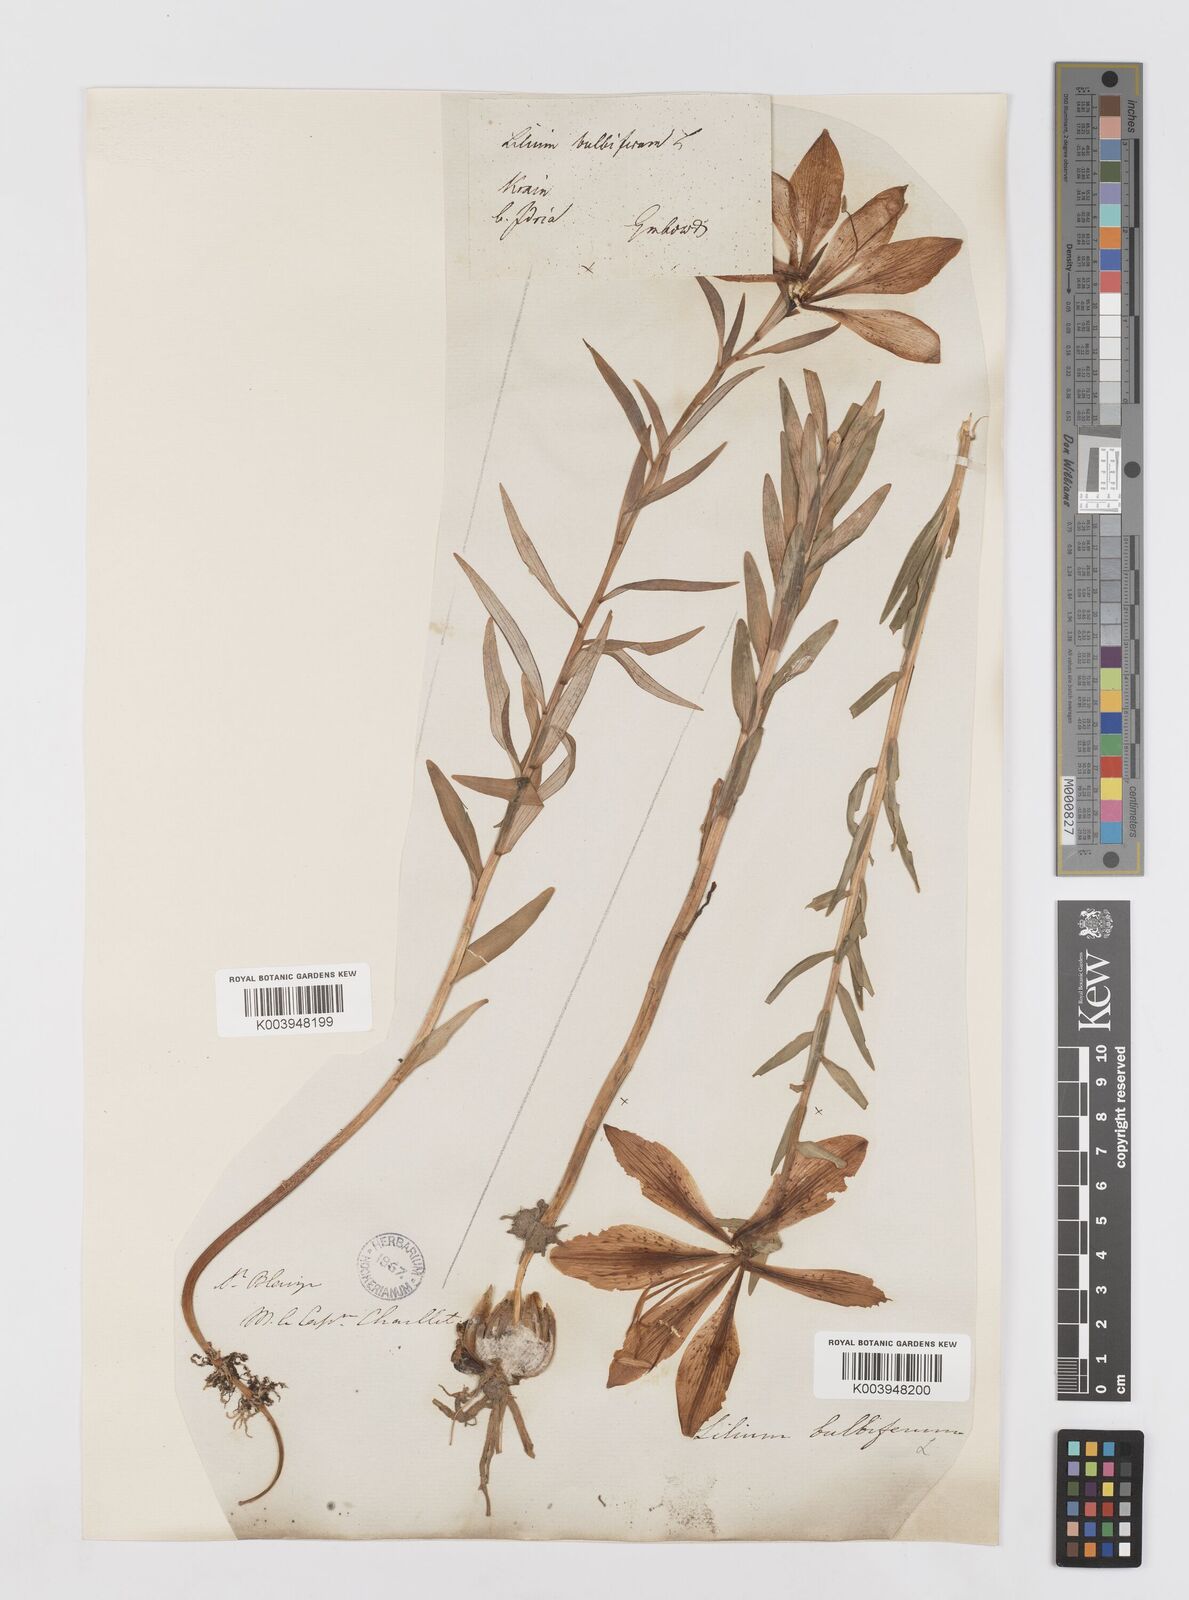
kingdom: Plantae
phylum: Tracheophyta
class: Liliopsida
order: Liliales
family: Liliaceae
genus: Lilium
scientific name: Lilium bulbiferum
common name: Orange lily
